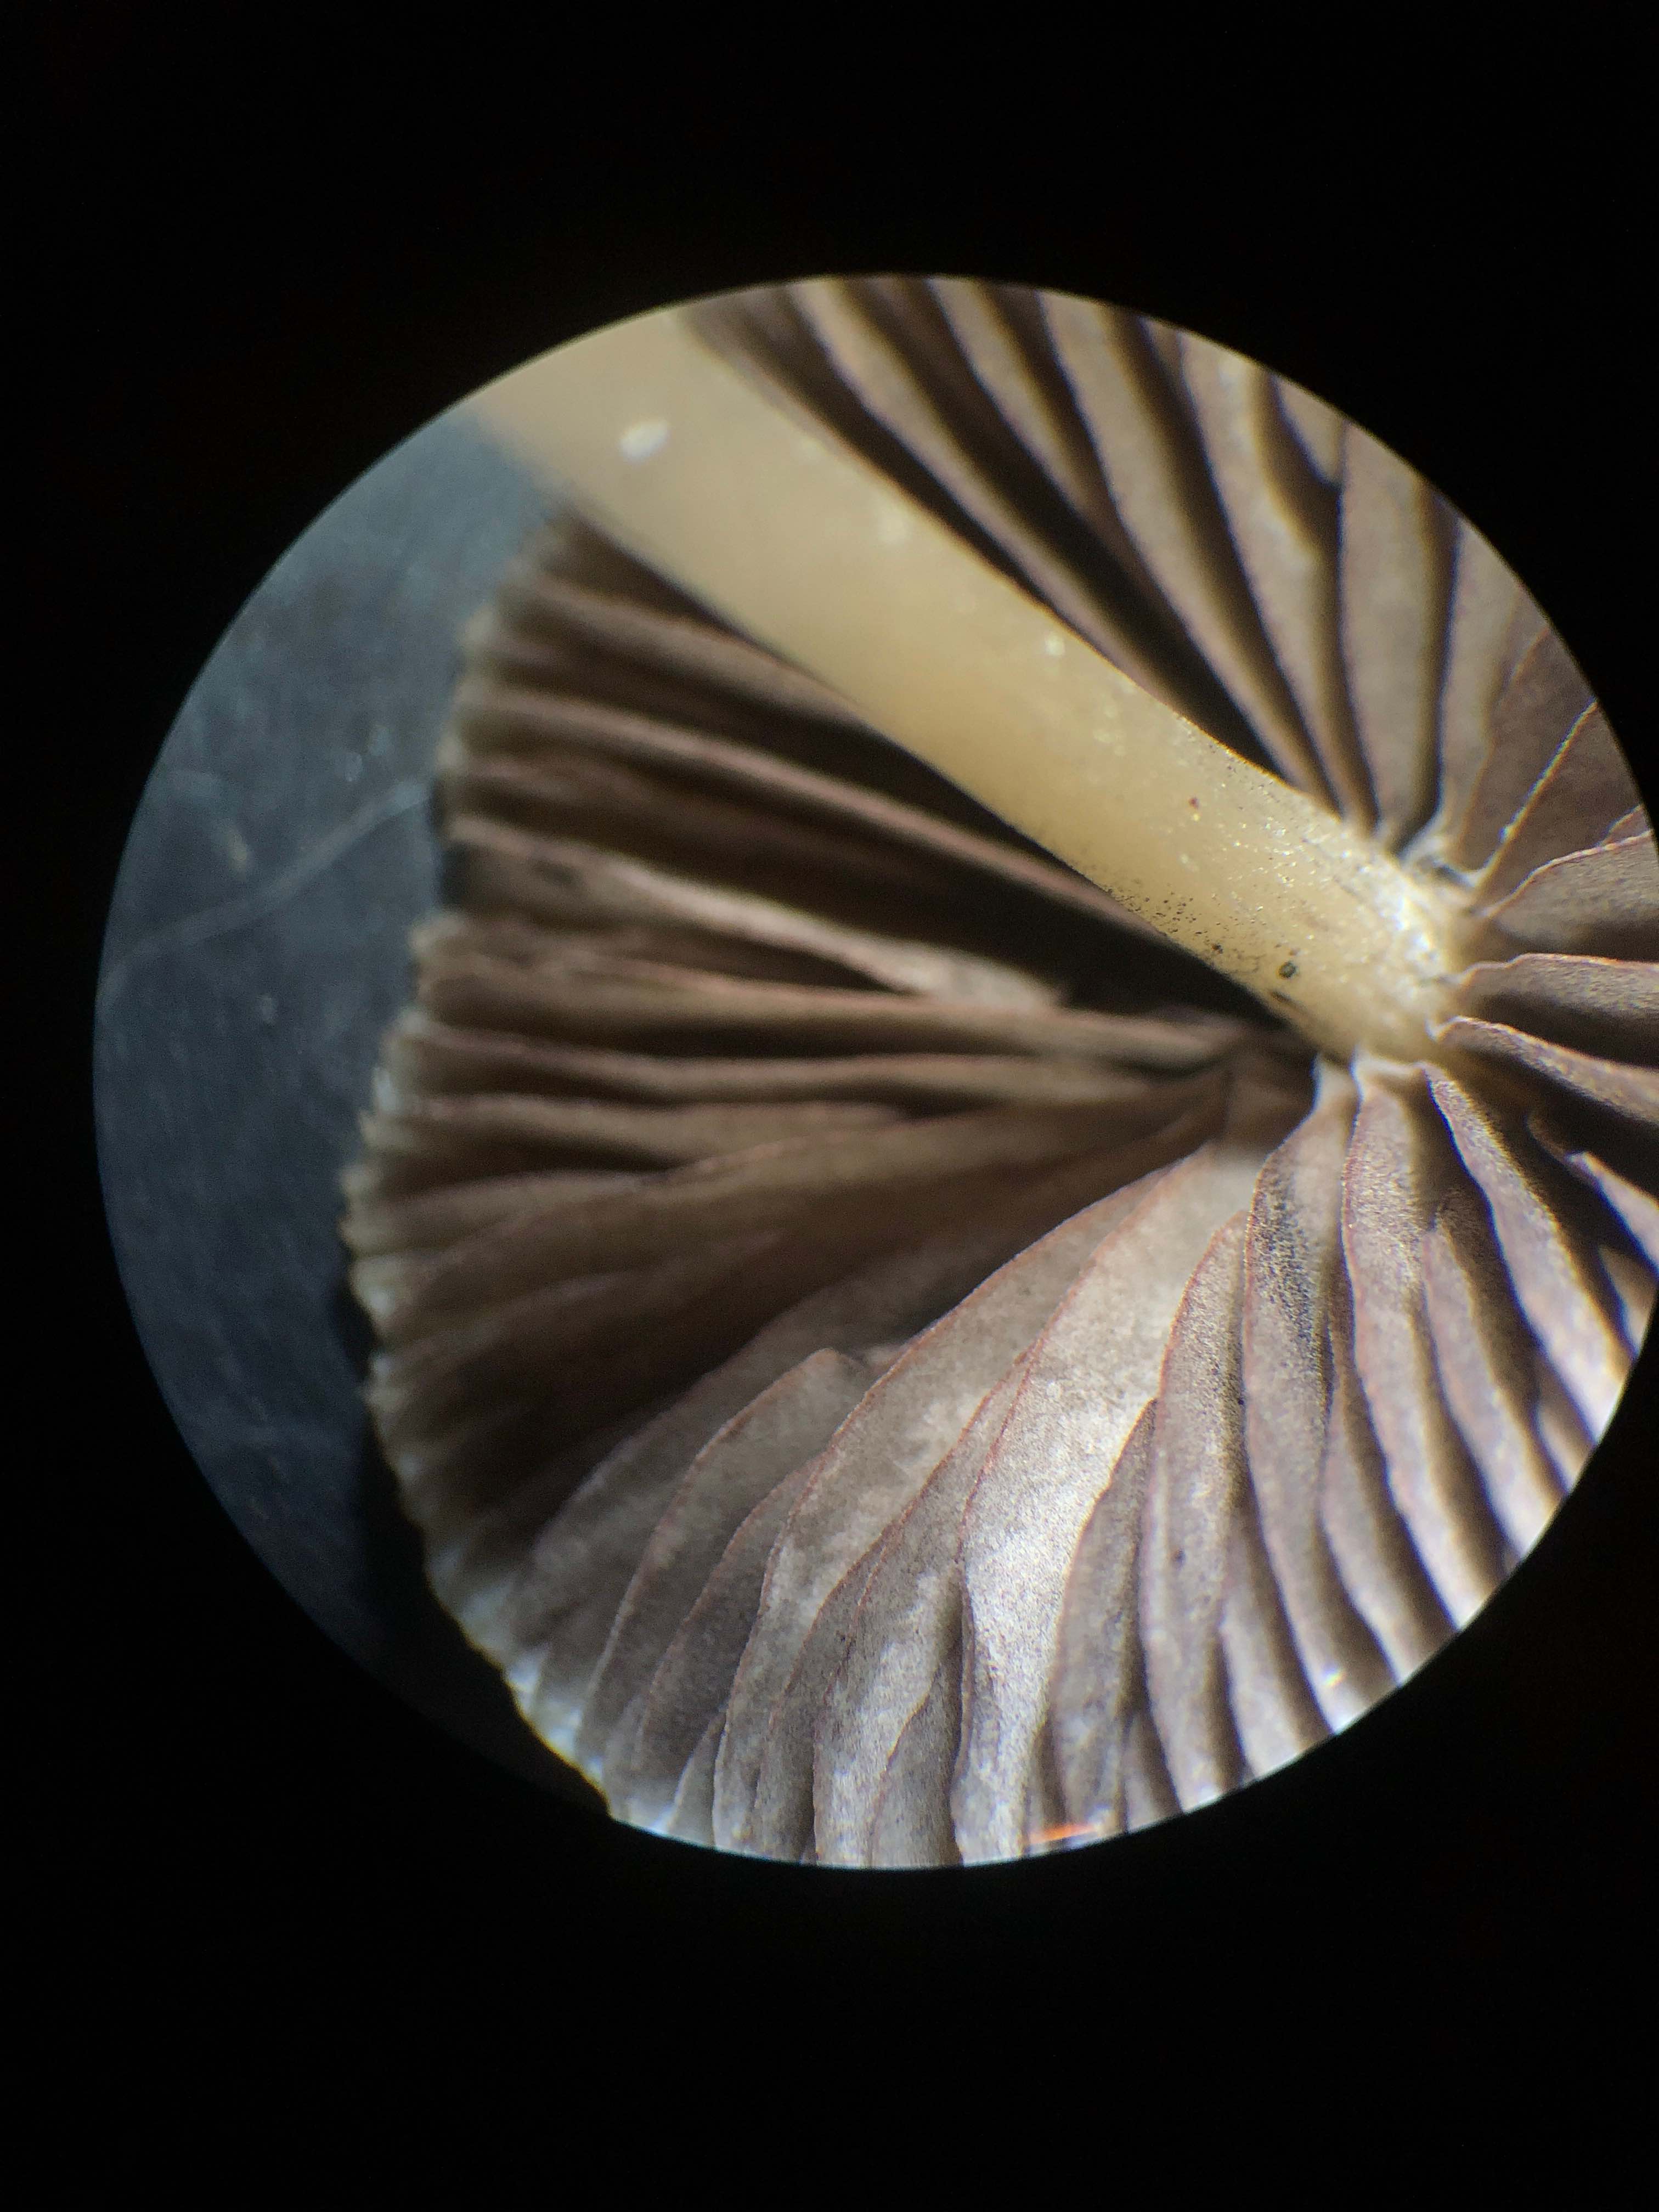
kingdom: Fungi
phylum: Basidiomycota
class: Agaricomycetes
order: Agaricales
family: Psathyrellaceae
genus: Psathyrella
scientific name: Psathyrella microrhiza
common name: rod-mørkhat
